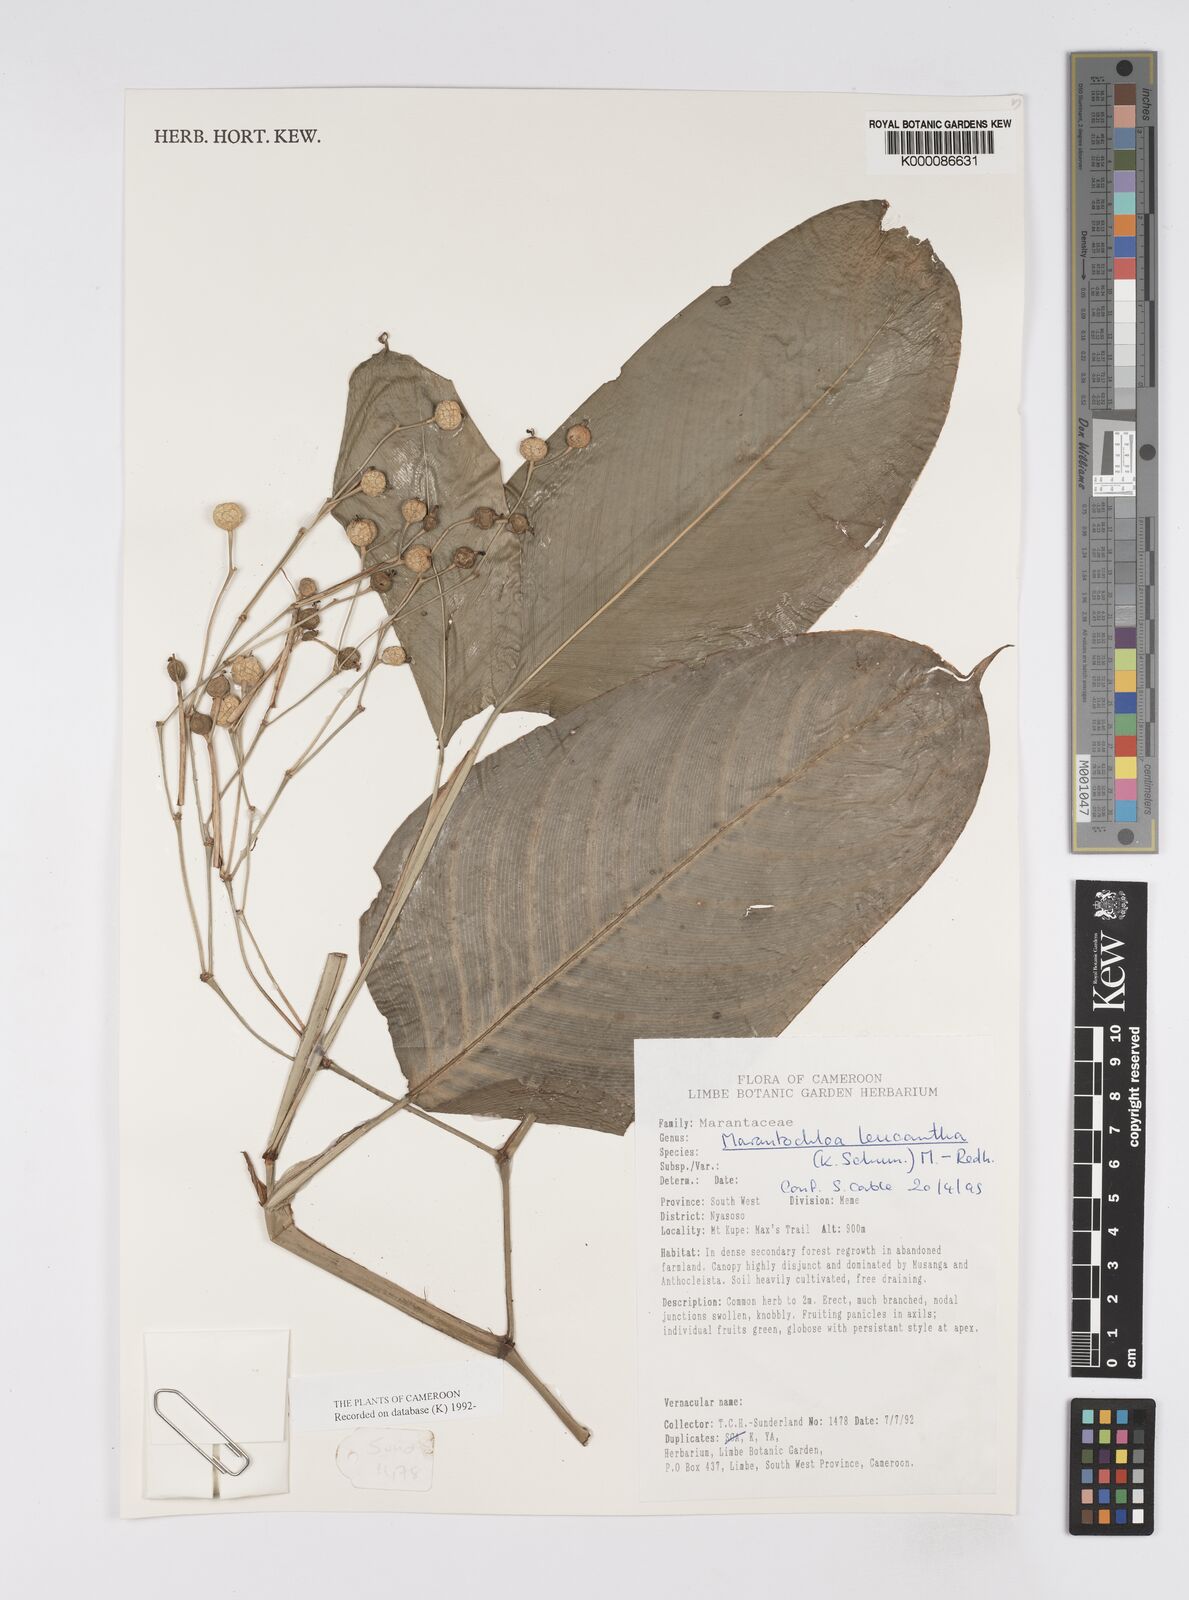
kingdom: Plantae
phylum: Tracheophyta
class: Liliopsida
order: Zingiberales
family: Marantaceae
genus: Marantochloa
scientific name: Marantochloa leucantha
